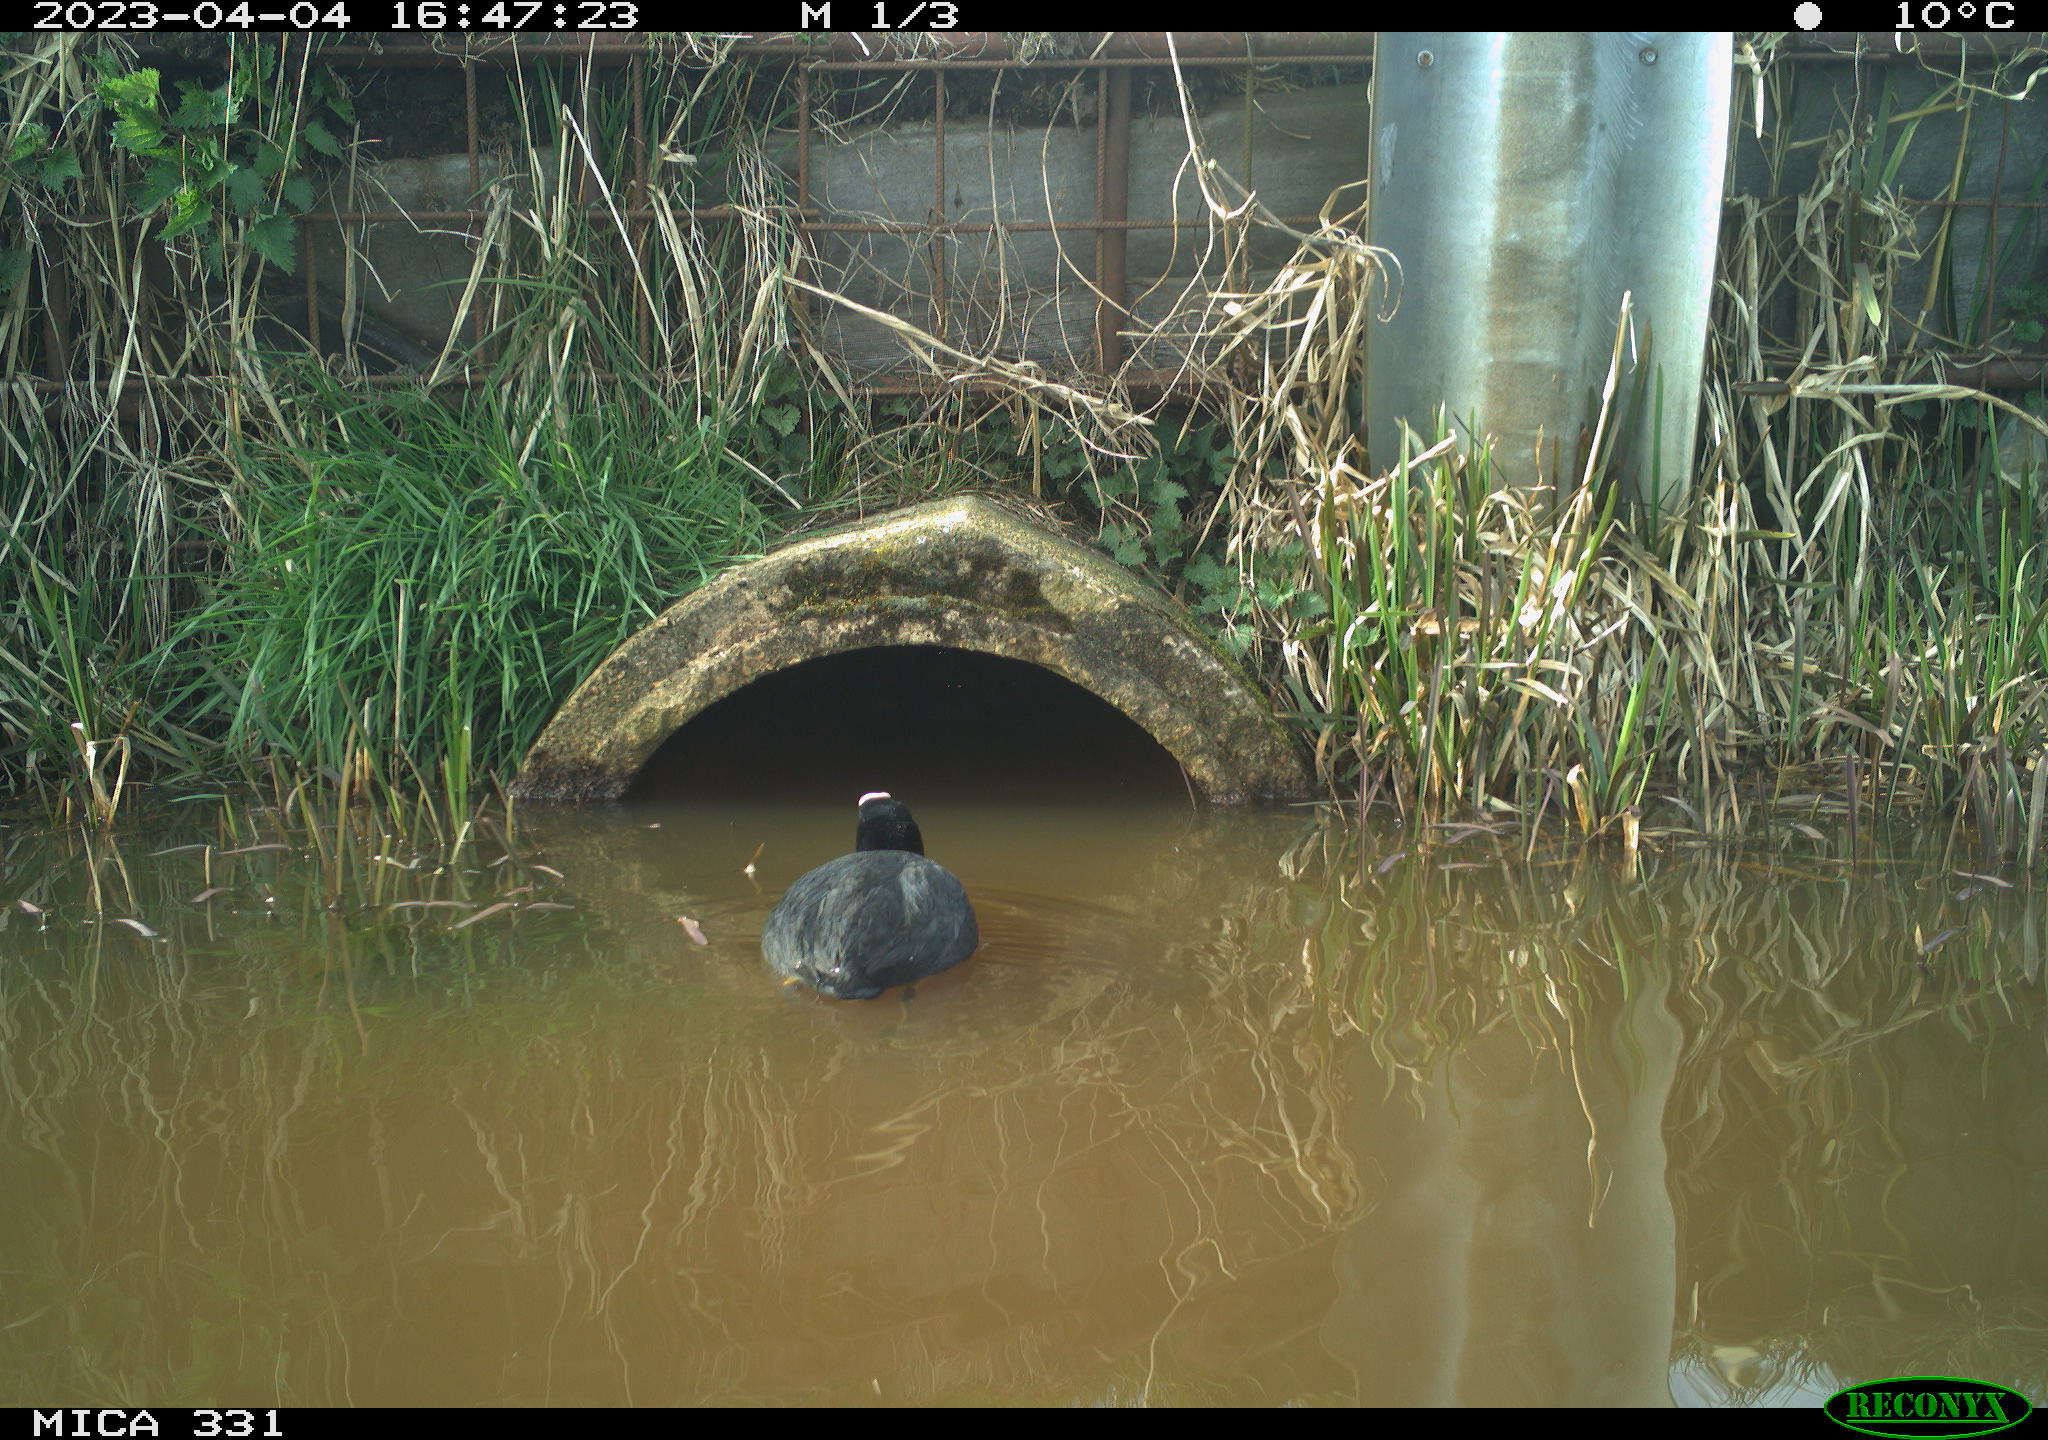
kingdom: Animalia
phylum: Chordata
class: Aves
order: Gruiformes
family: Rallidae
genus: Gallinula
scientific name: Gallinula chloropus
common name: Common moorhen
